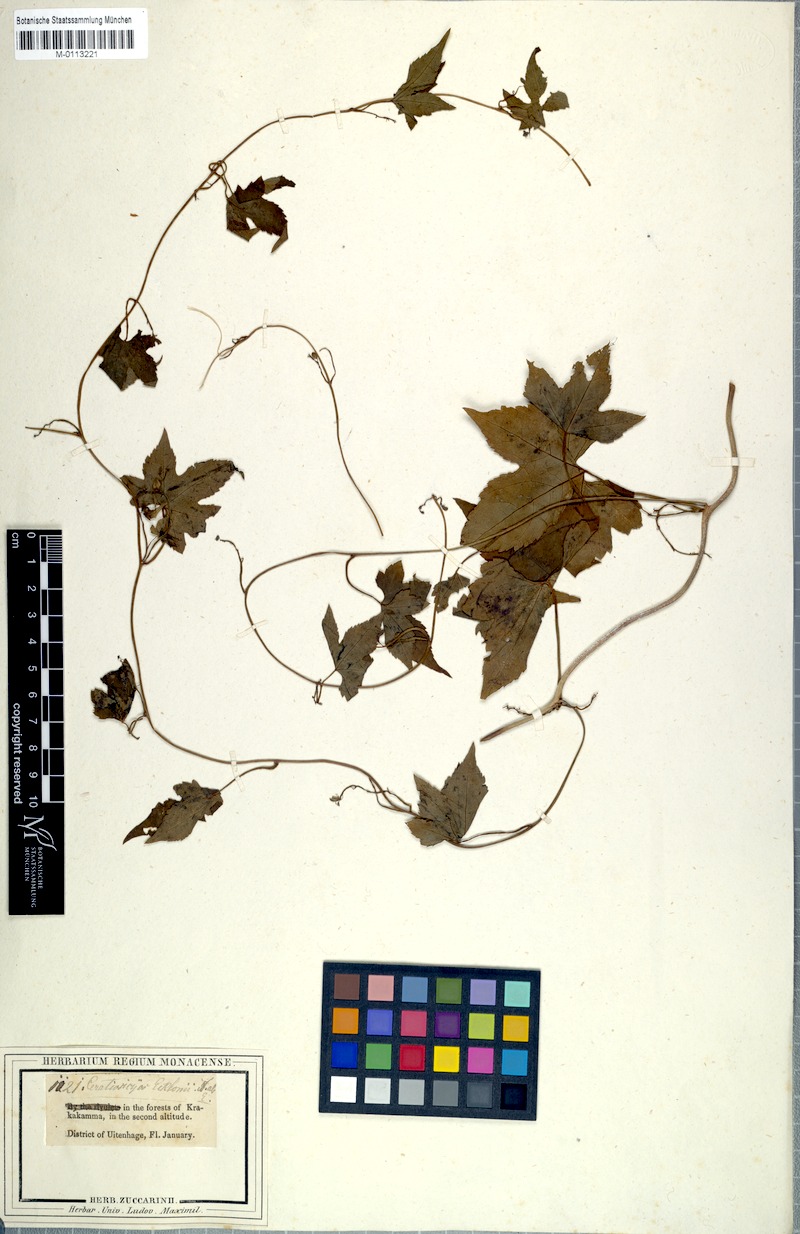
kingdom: Plantae
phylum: Tracheophyta
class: Magnoliopsida
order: Malpighiales
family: Achariaceae
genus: Ceratiosicyos
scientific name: Ceratiosicyos laevis
